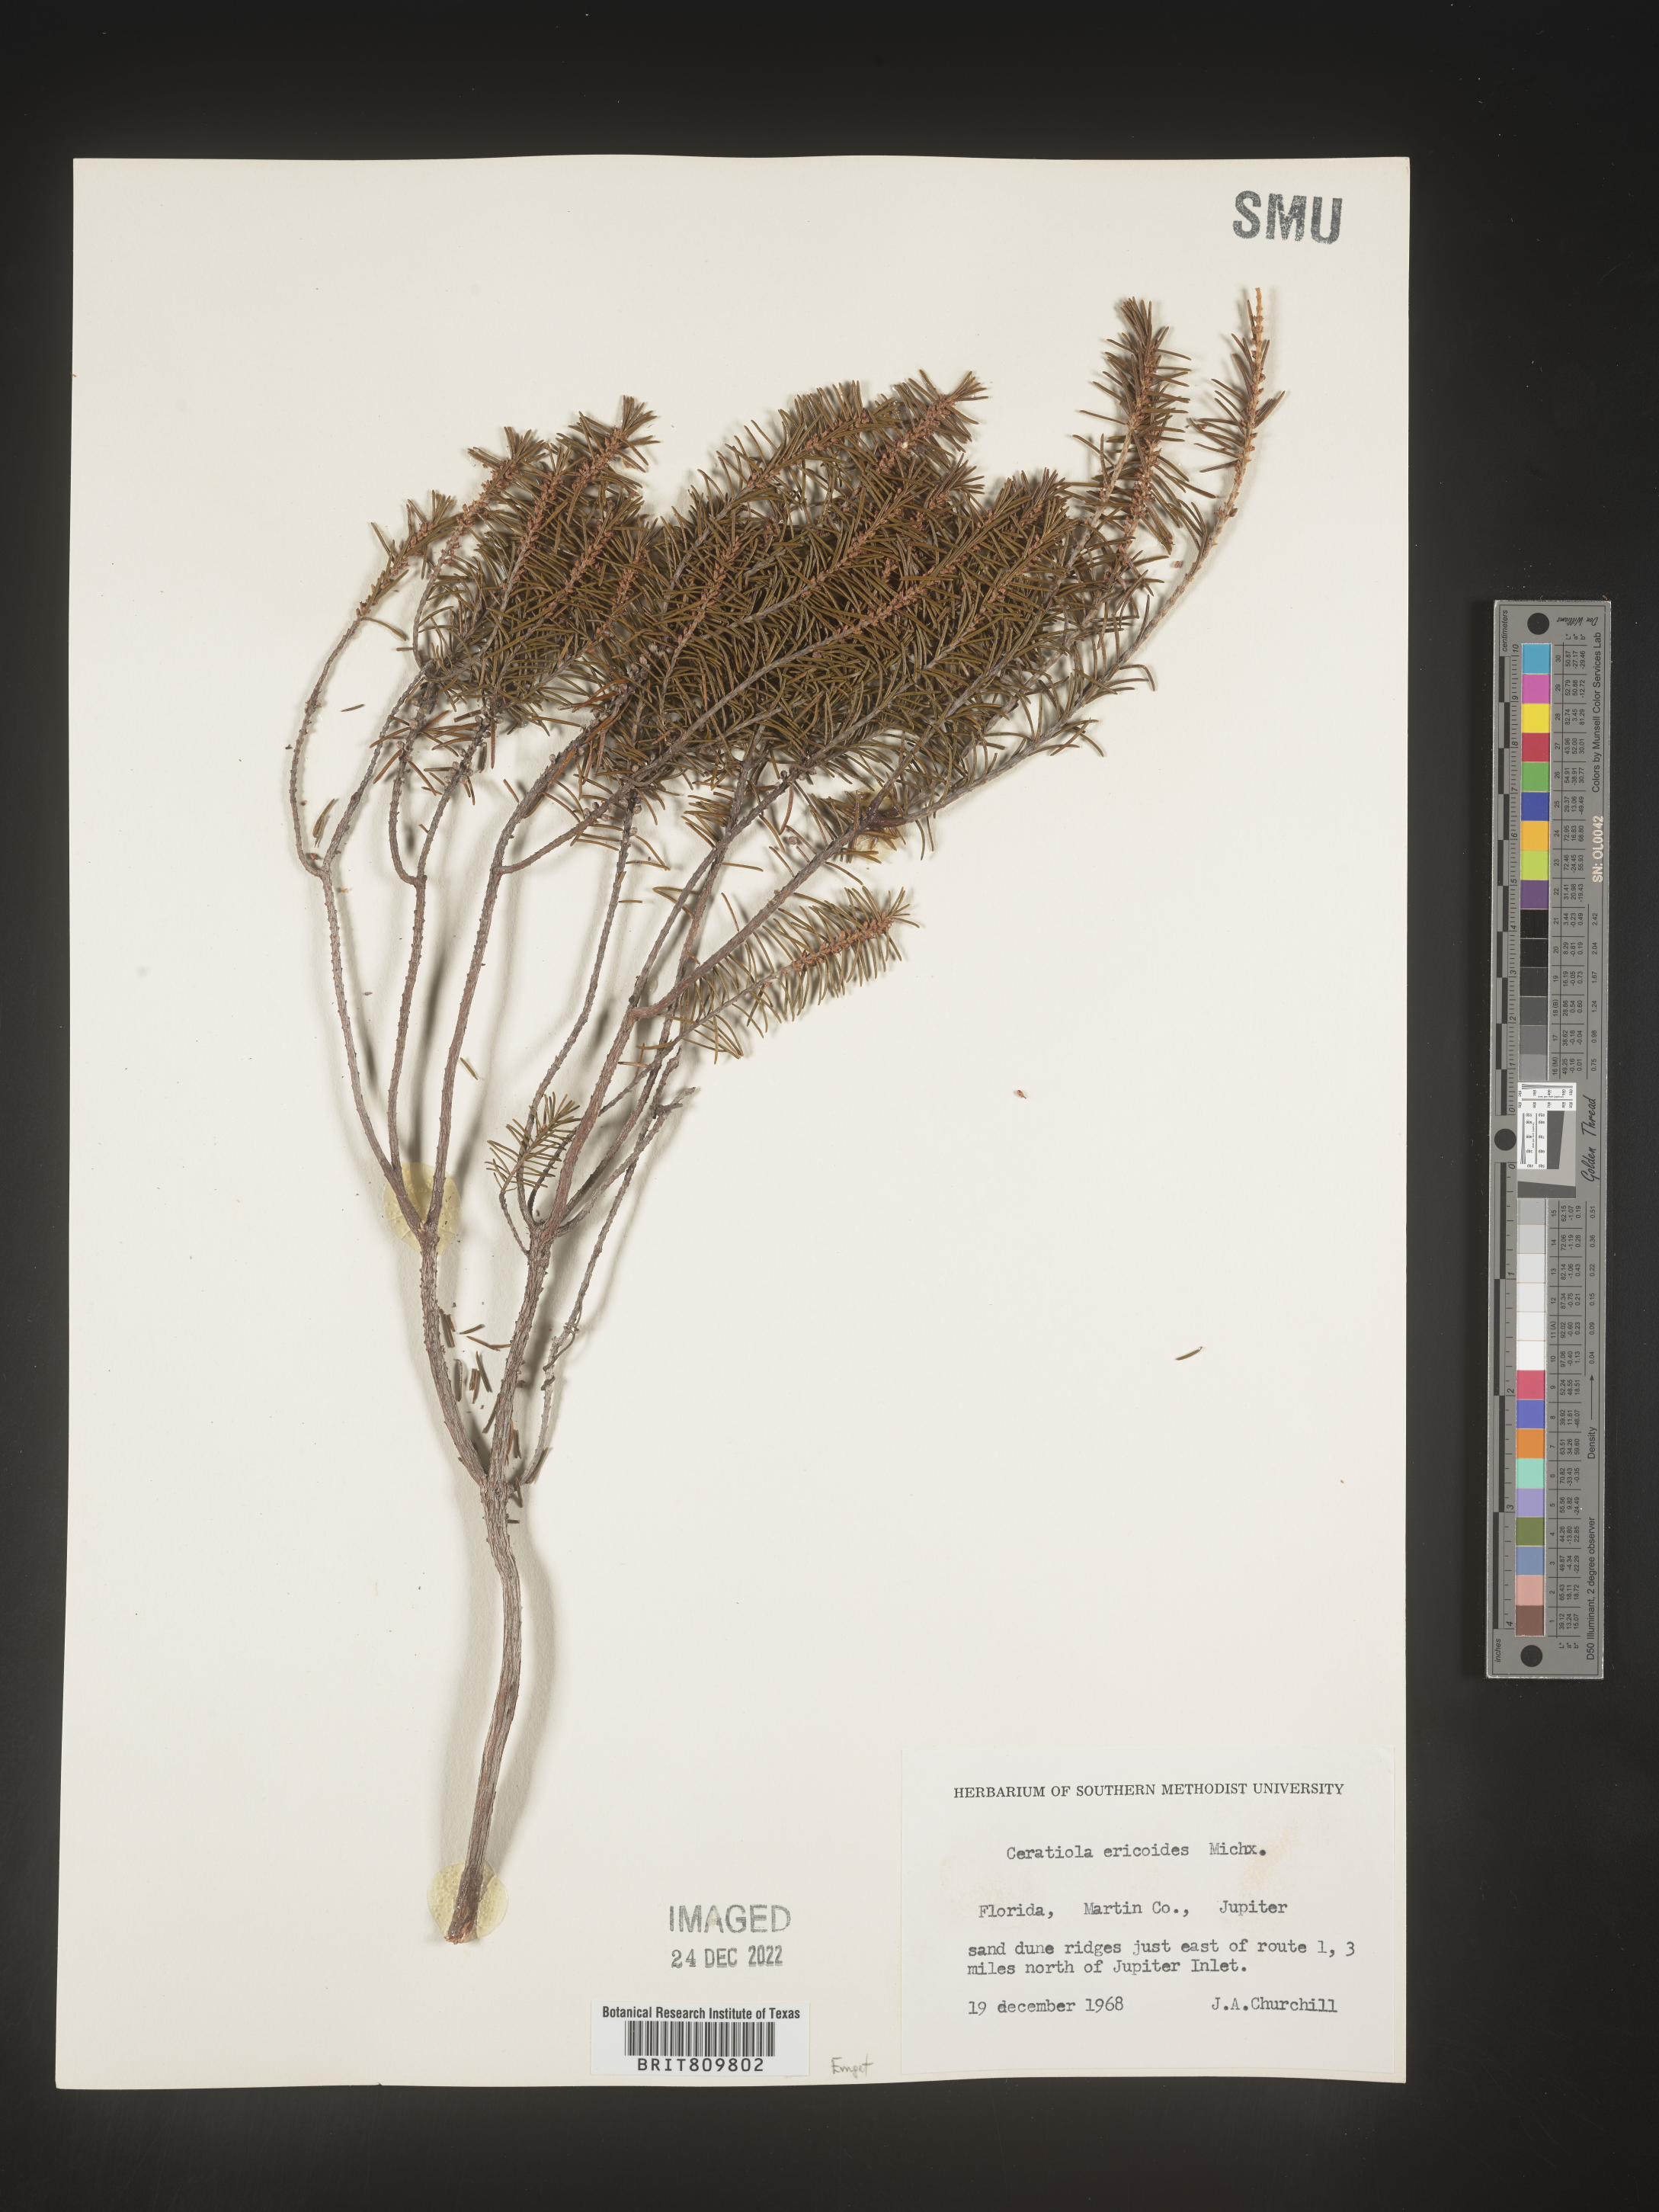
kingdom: Plantae
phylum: Tracheophyta
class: Magnoliopsida
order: Ericales
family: Ericaceae
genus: Ceratiola
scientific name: Ceratiola ericoides
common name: Sandhill-rosemary
